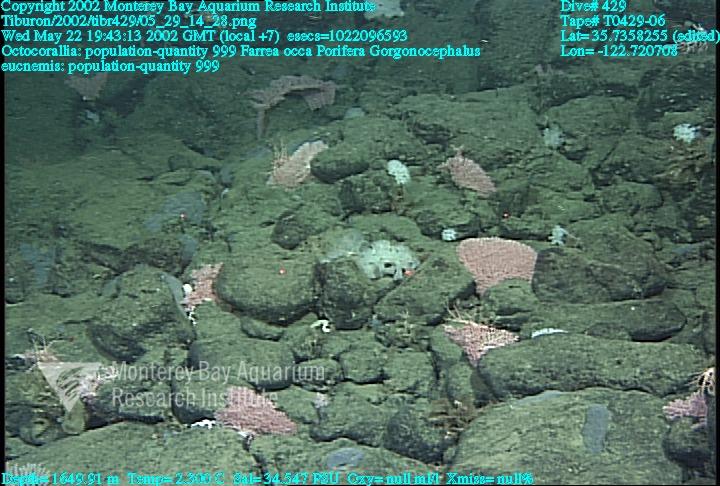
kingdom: Animalia
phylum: Porifera
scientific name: Porifera
